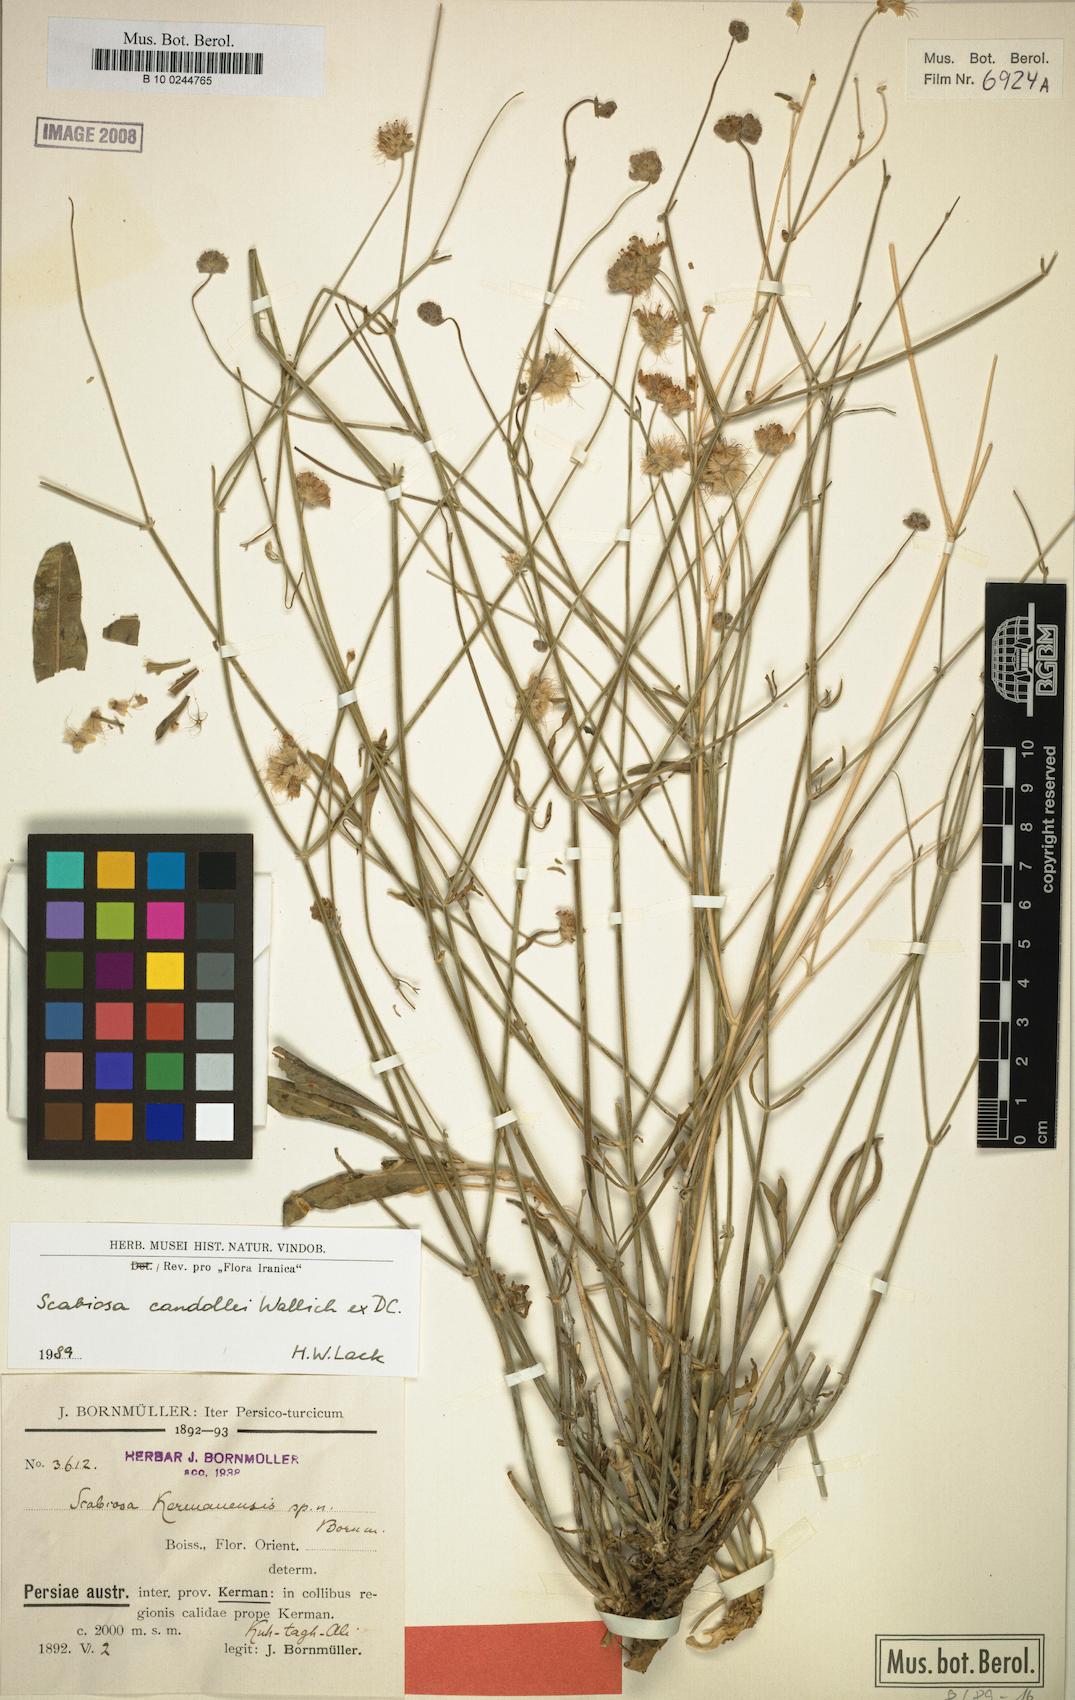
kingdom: Plantae
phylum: Tracheophyta
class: Magnoliopsida
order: Dipsacales
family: Caprifoliaceae
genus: Lomelosia
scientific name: Lomelosia candollei
